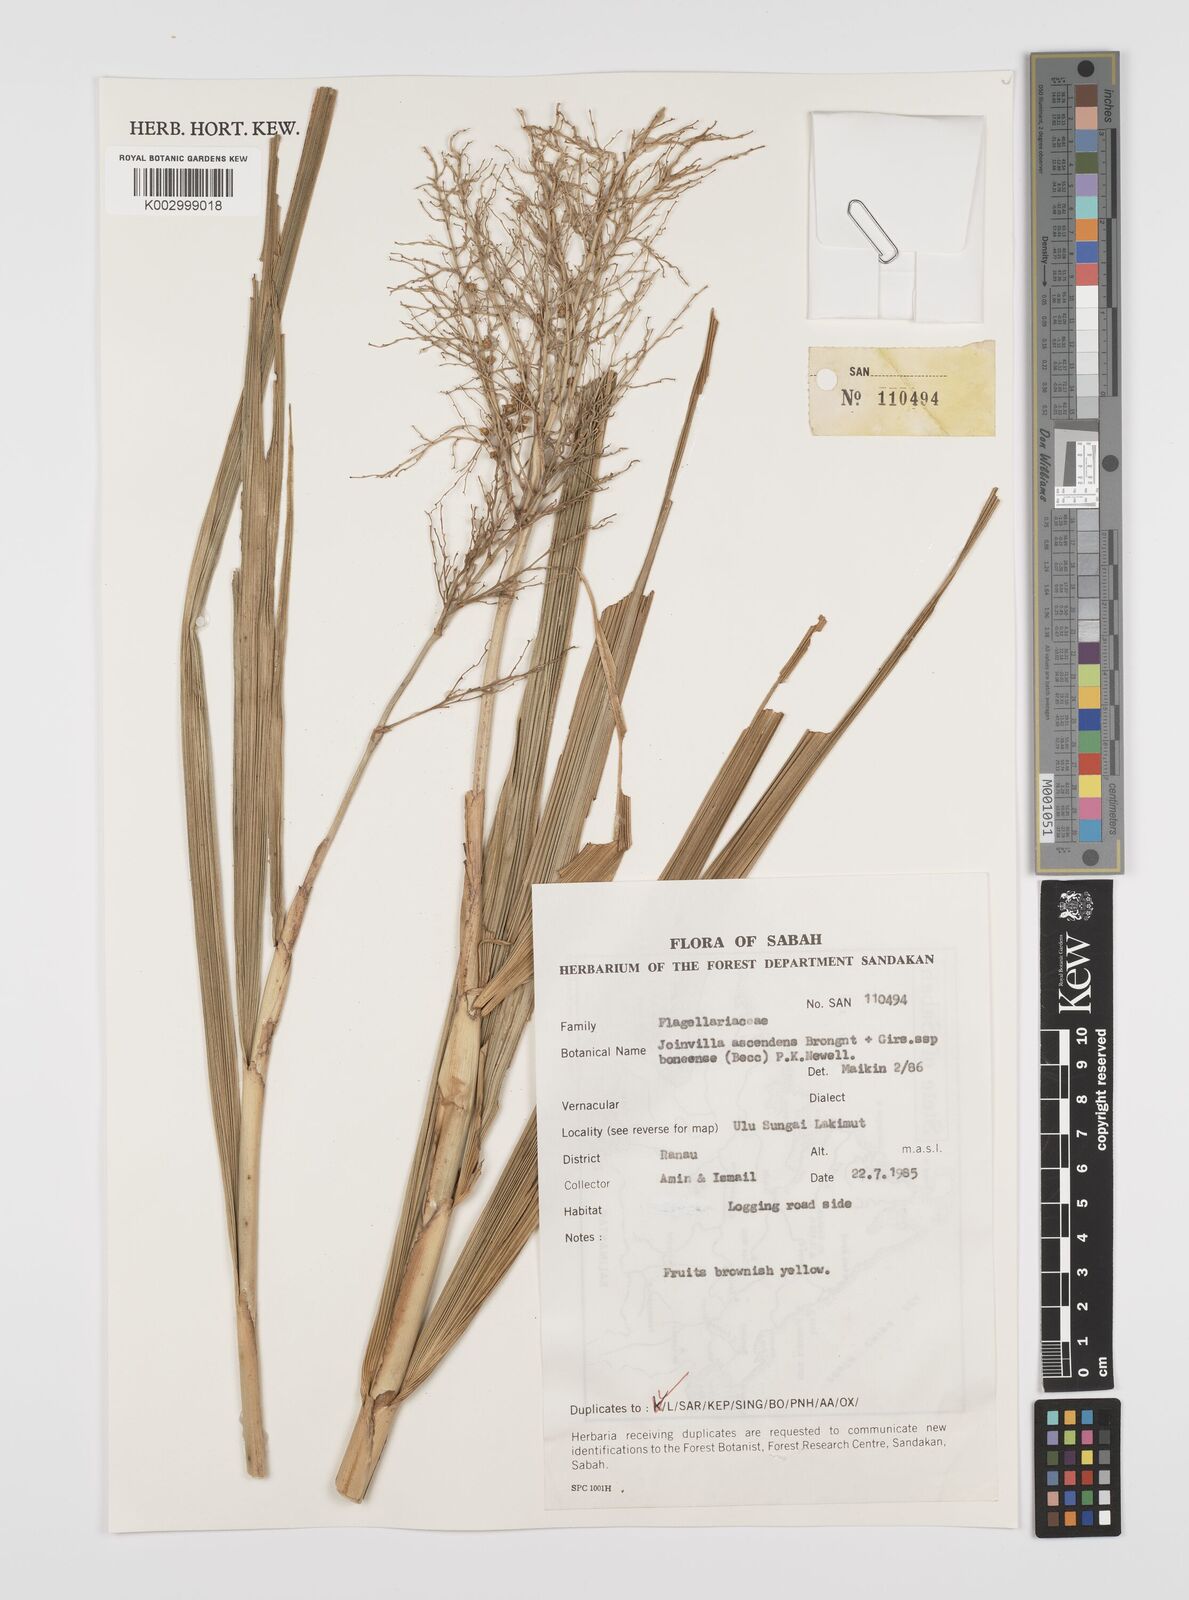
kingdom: Plantae
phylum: Tracheophyta
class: Liliopsida
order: Poales
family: Joinvilleaceae
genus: Joinvillea
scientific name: Joinvillea borneensis
